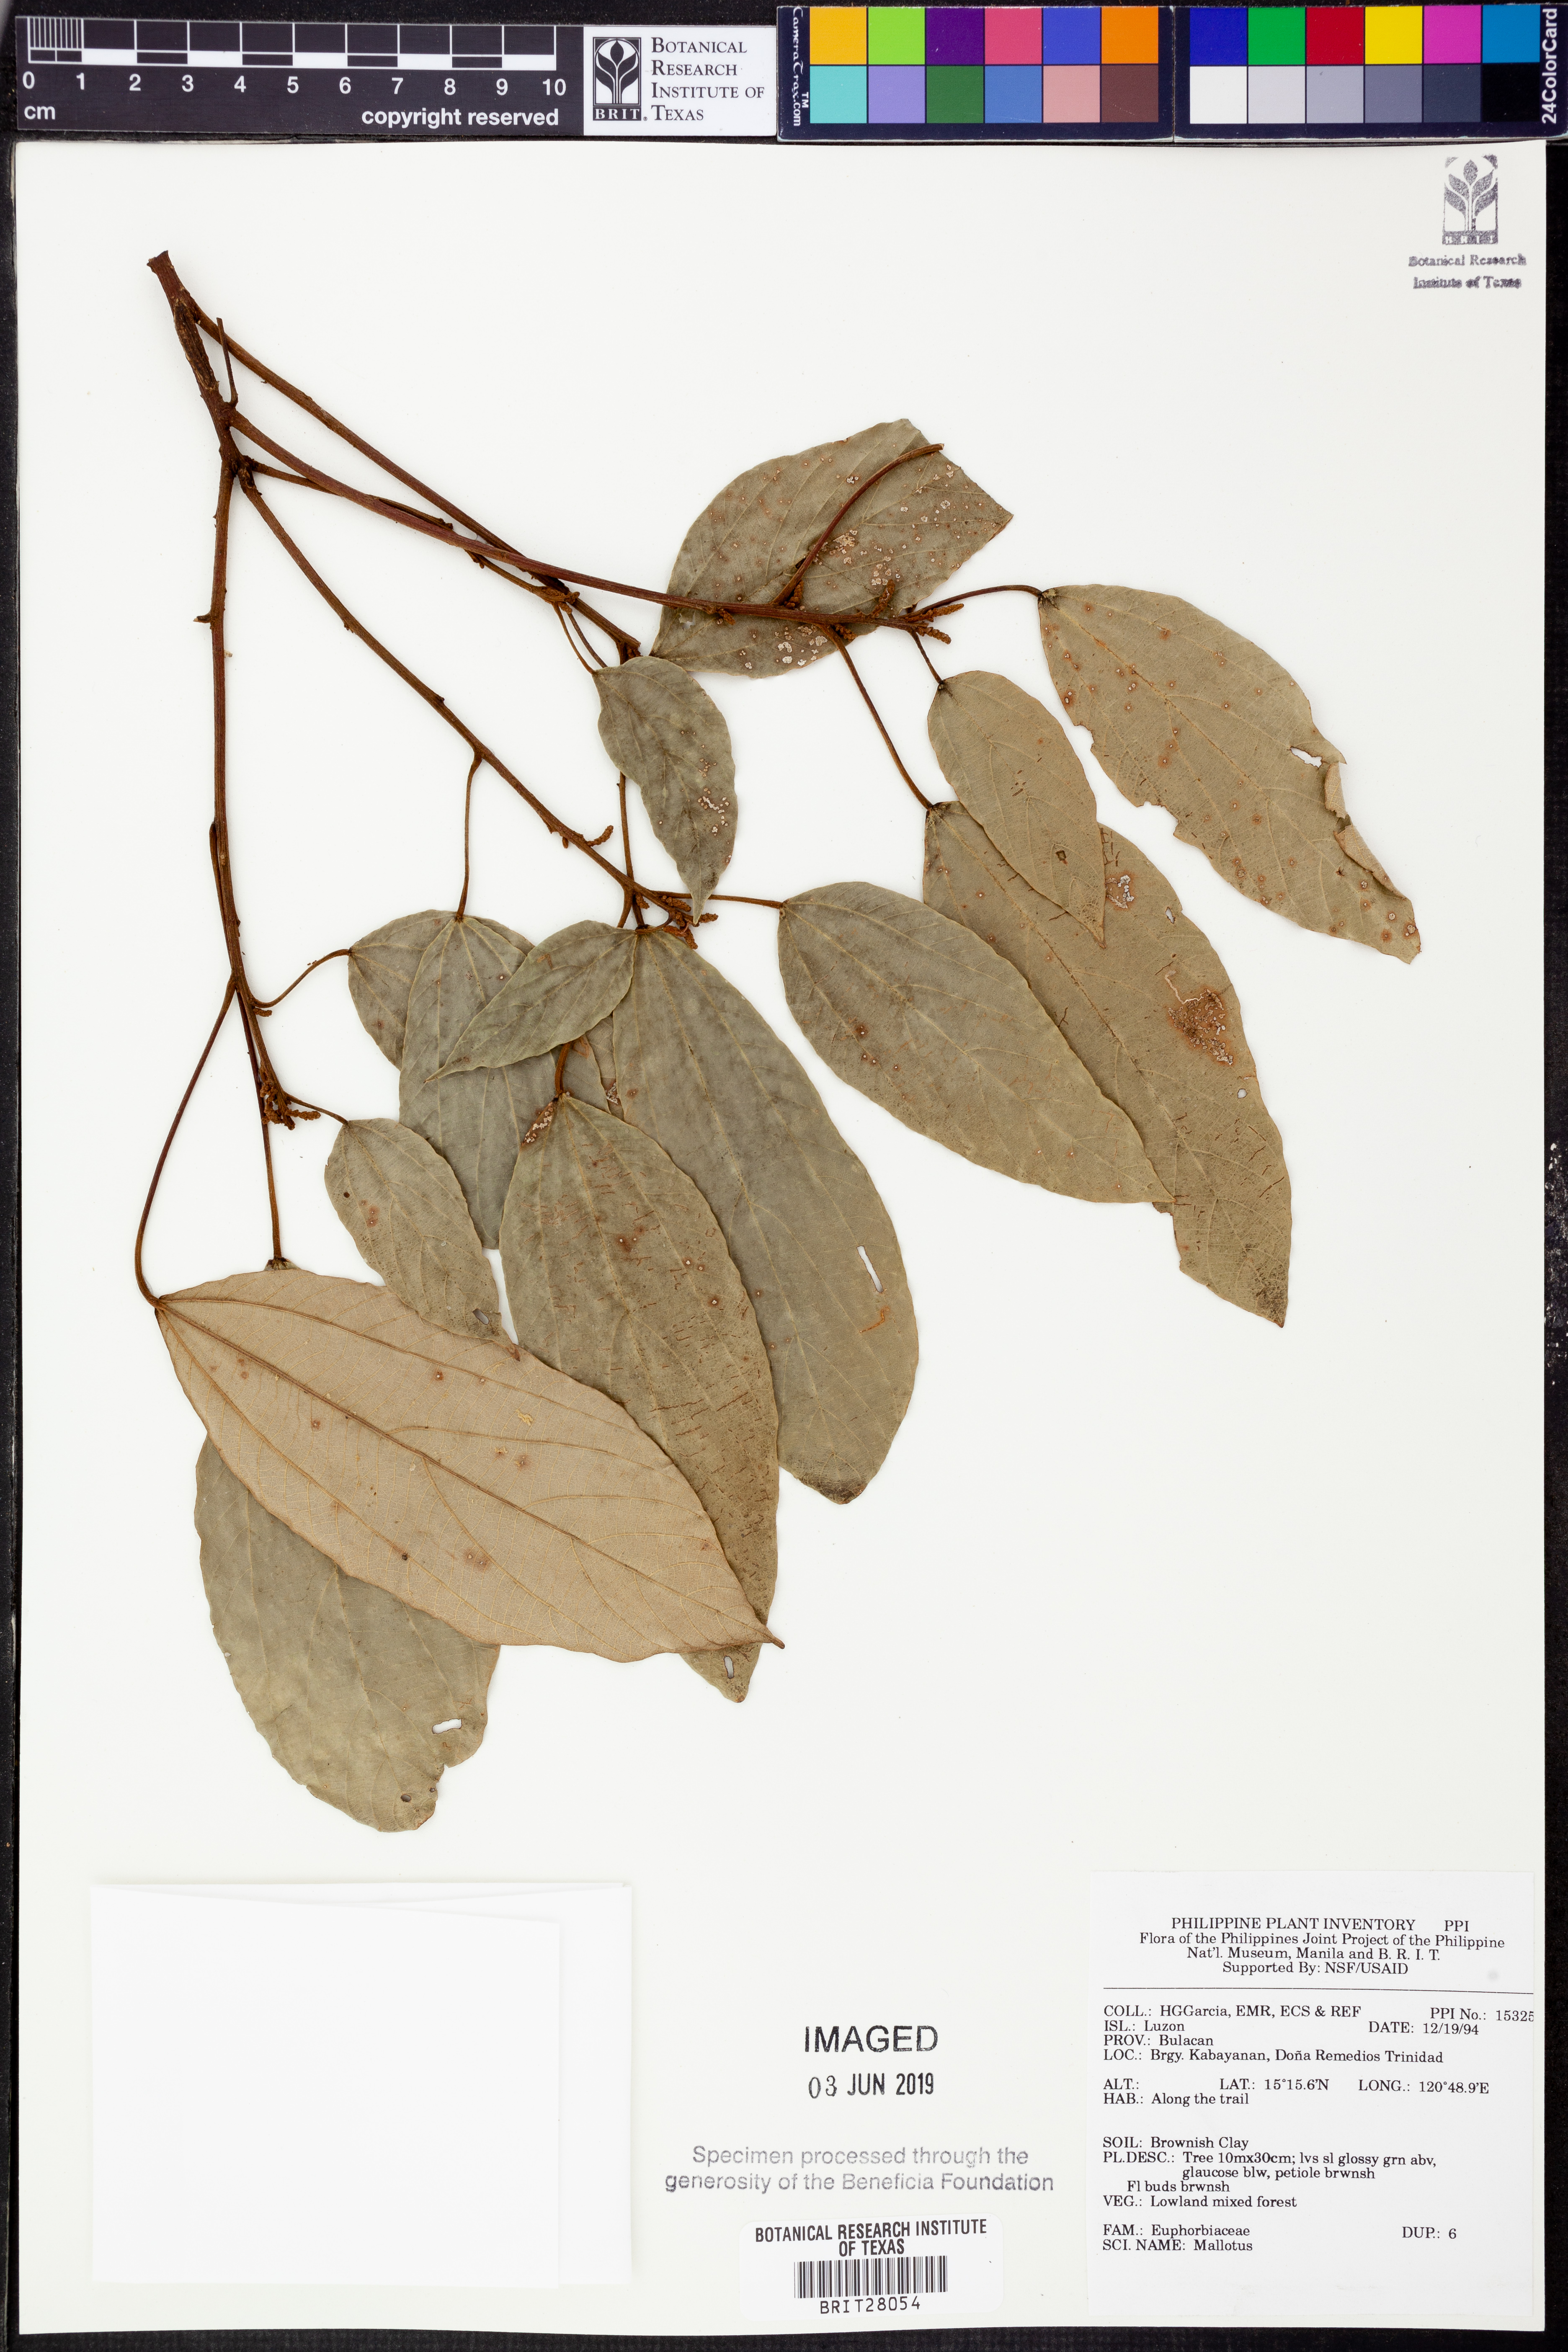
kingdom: Plantae
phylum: Tracheophyta
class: Magnoliopsida
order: Malpighiales
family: Euphorbiaceae
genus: Mallotus
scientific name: Mallotus
